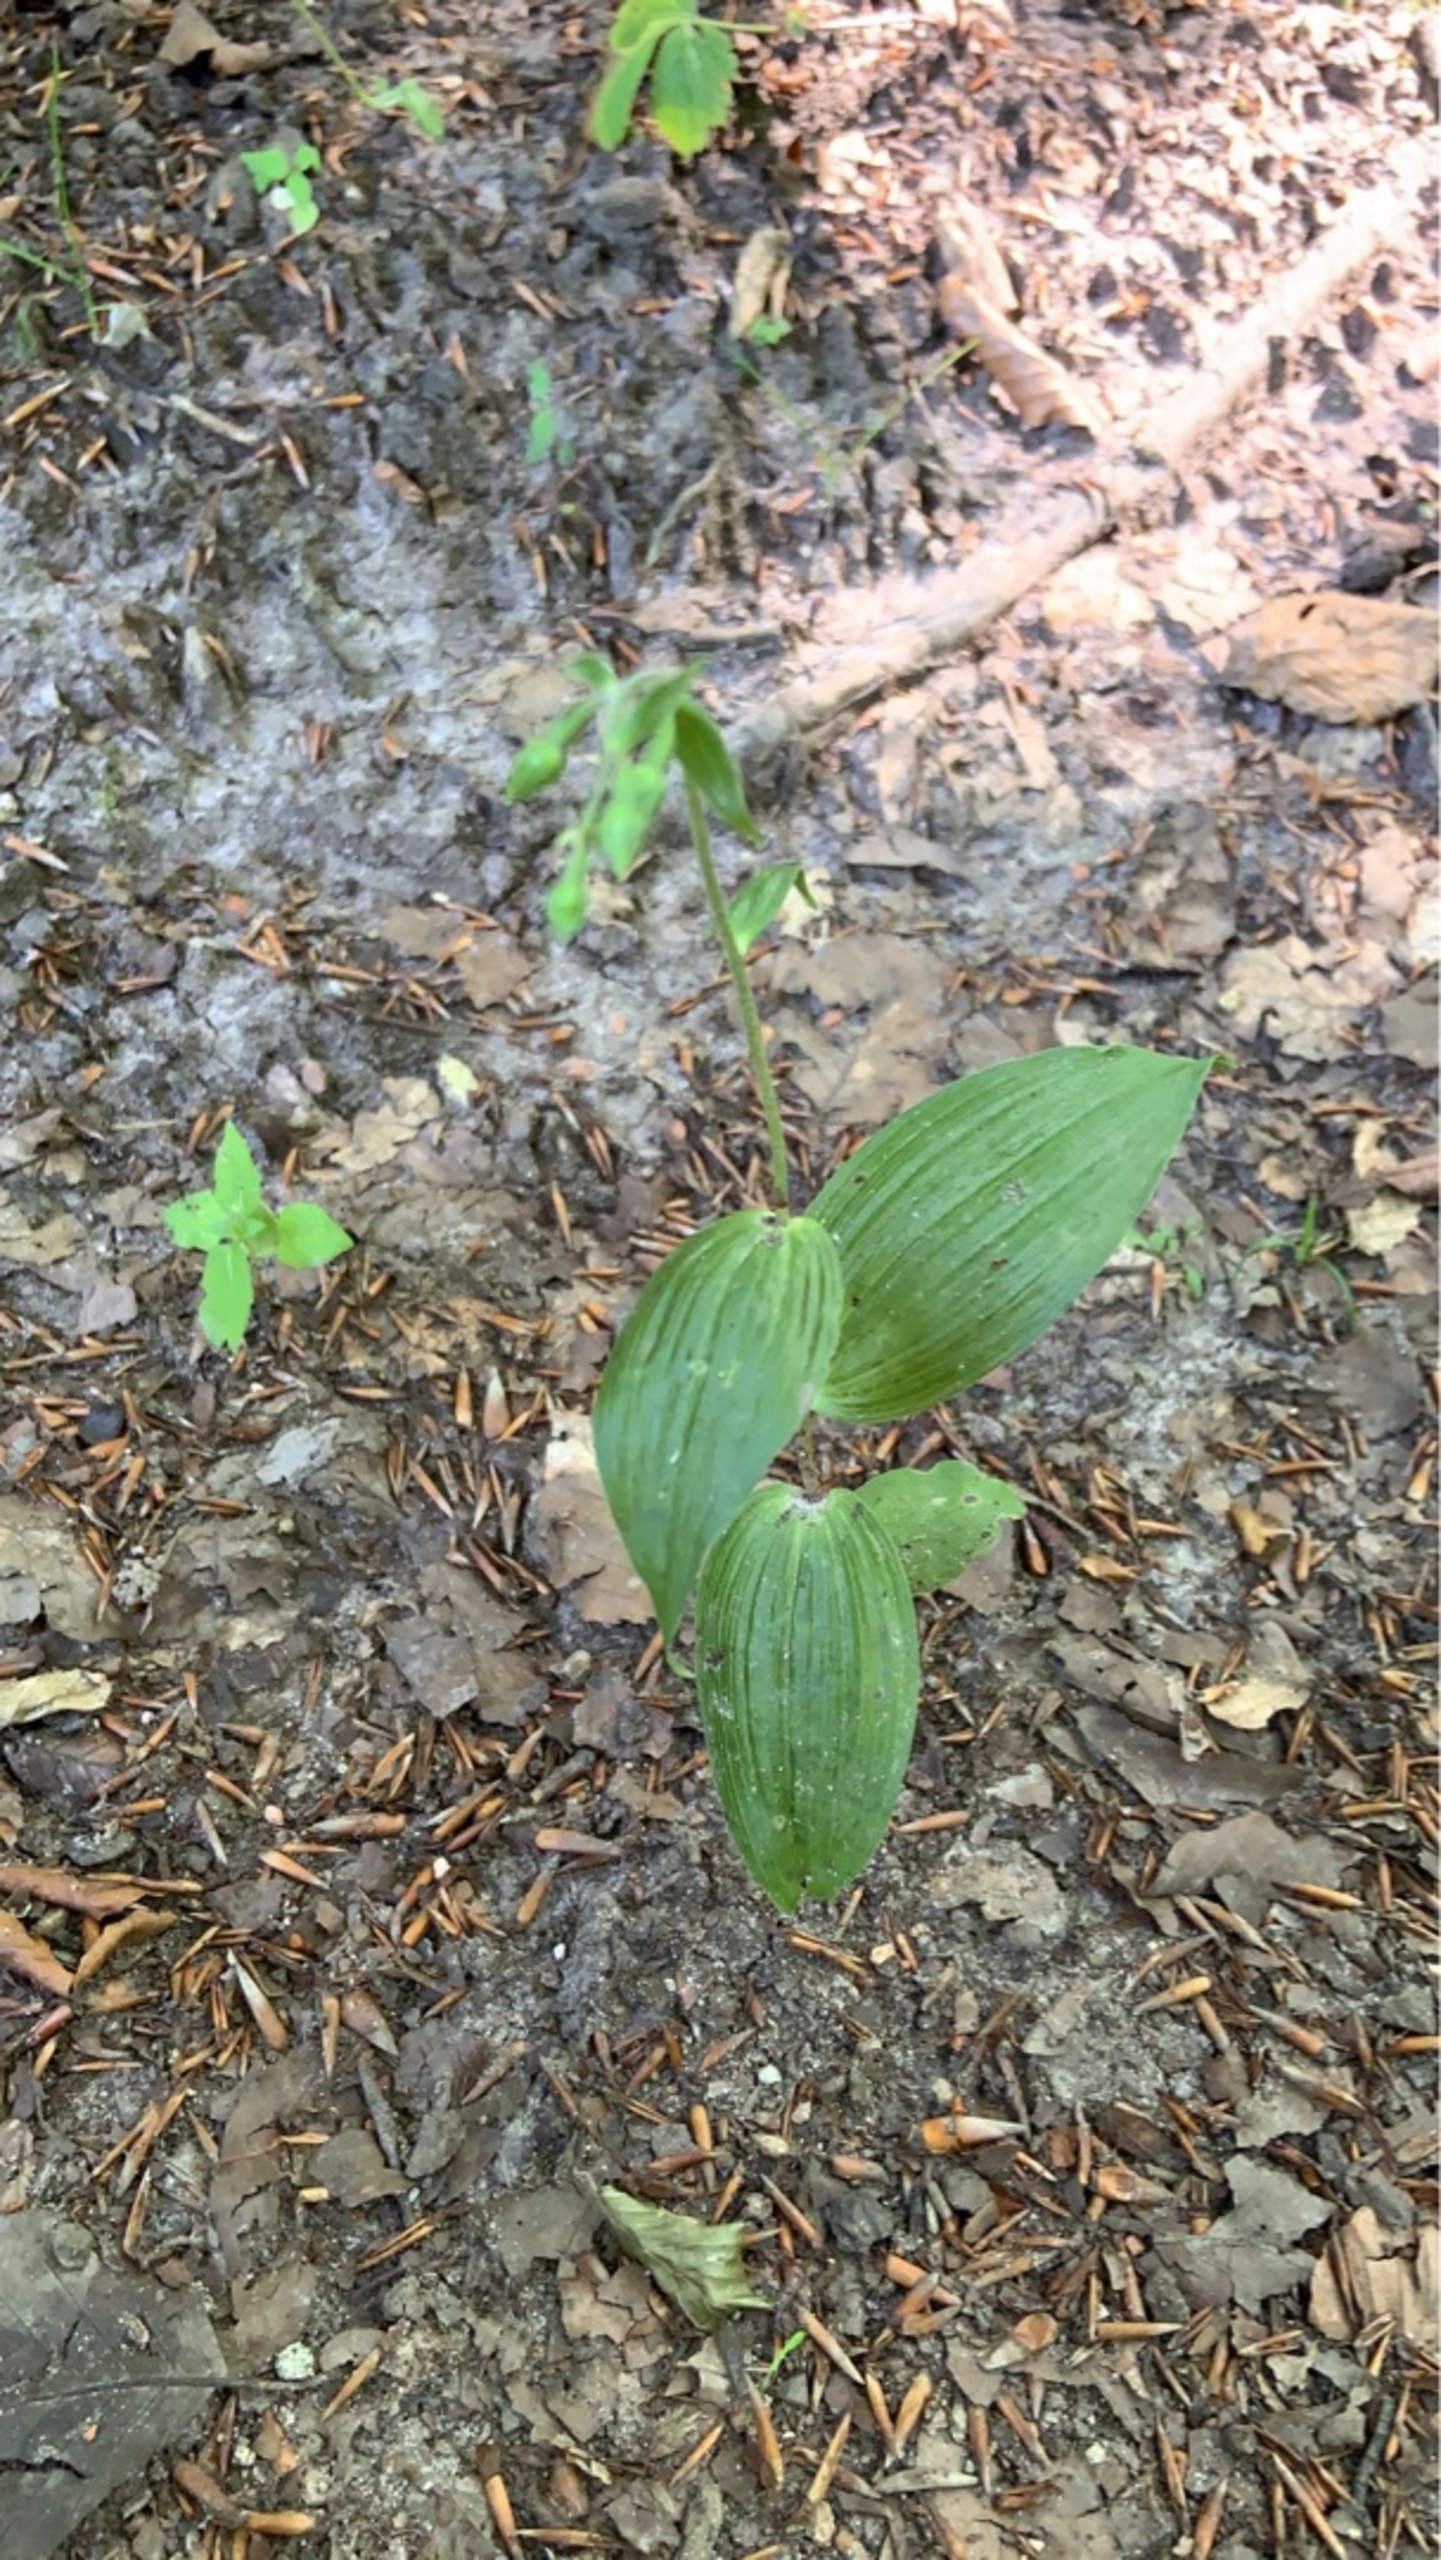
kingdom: Plantae
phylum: Tracheophyta
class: Liliopsida
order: Asparagales
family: Orchidaceae
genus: Epipactis
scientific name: Epipactis helleborine
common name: Skov-hullæbe
